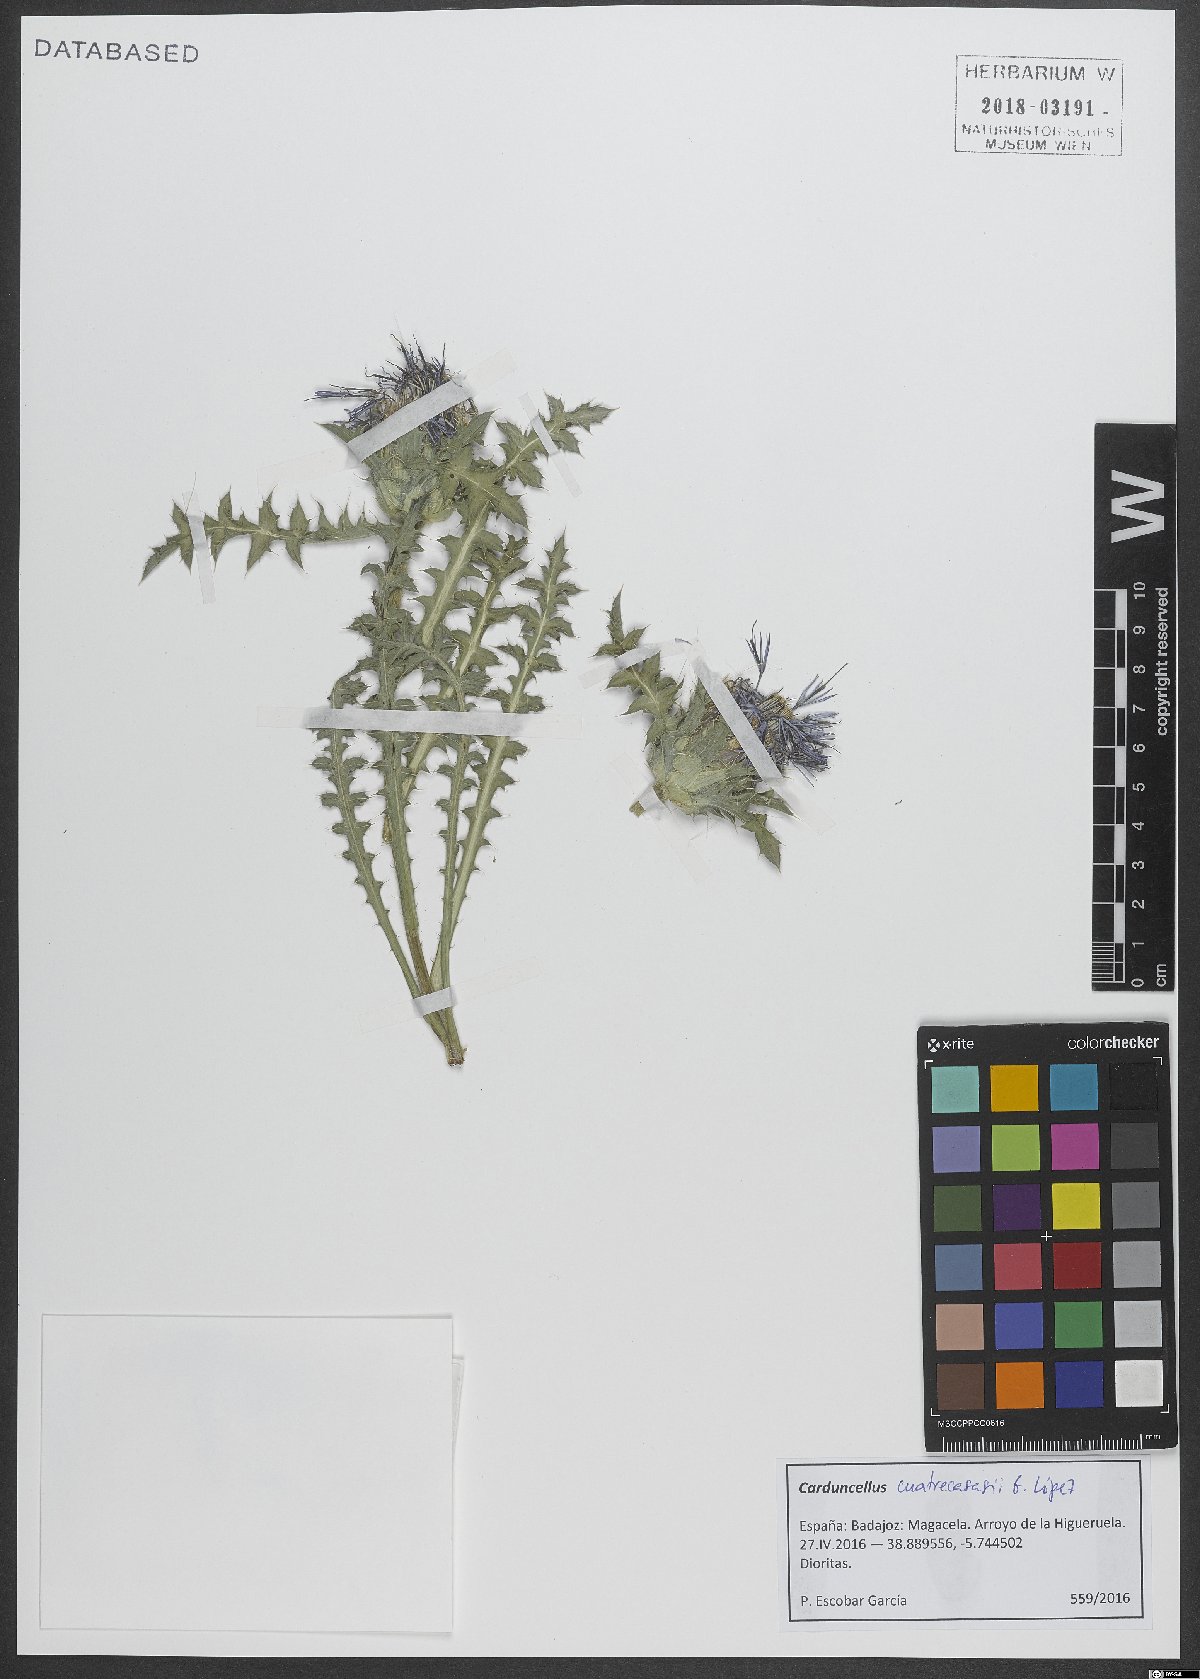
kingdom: Plantae
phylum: Tracheophyta
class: Magnoliopsida
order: Asterales
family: Asteraceae
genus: Carduncellus
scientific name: Carduncellus hispanicus
